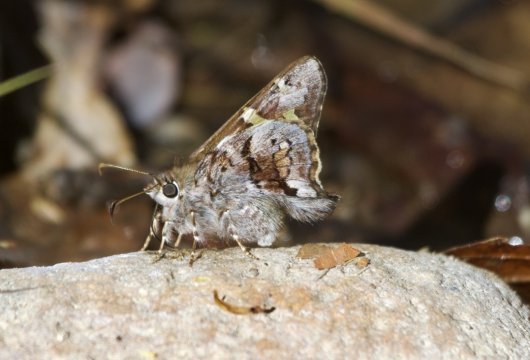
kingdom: Animalia
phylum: Arthropoda
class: Insecta
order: Lepidoptera
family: Hesperiidae
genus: Zestusa
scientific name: Zestusa dorus
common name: Short-tailed Skipper
